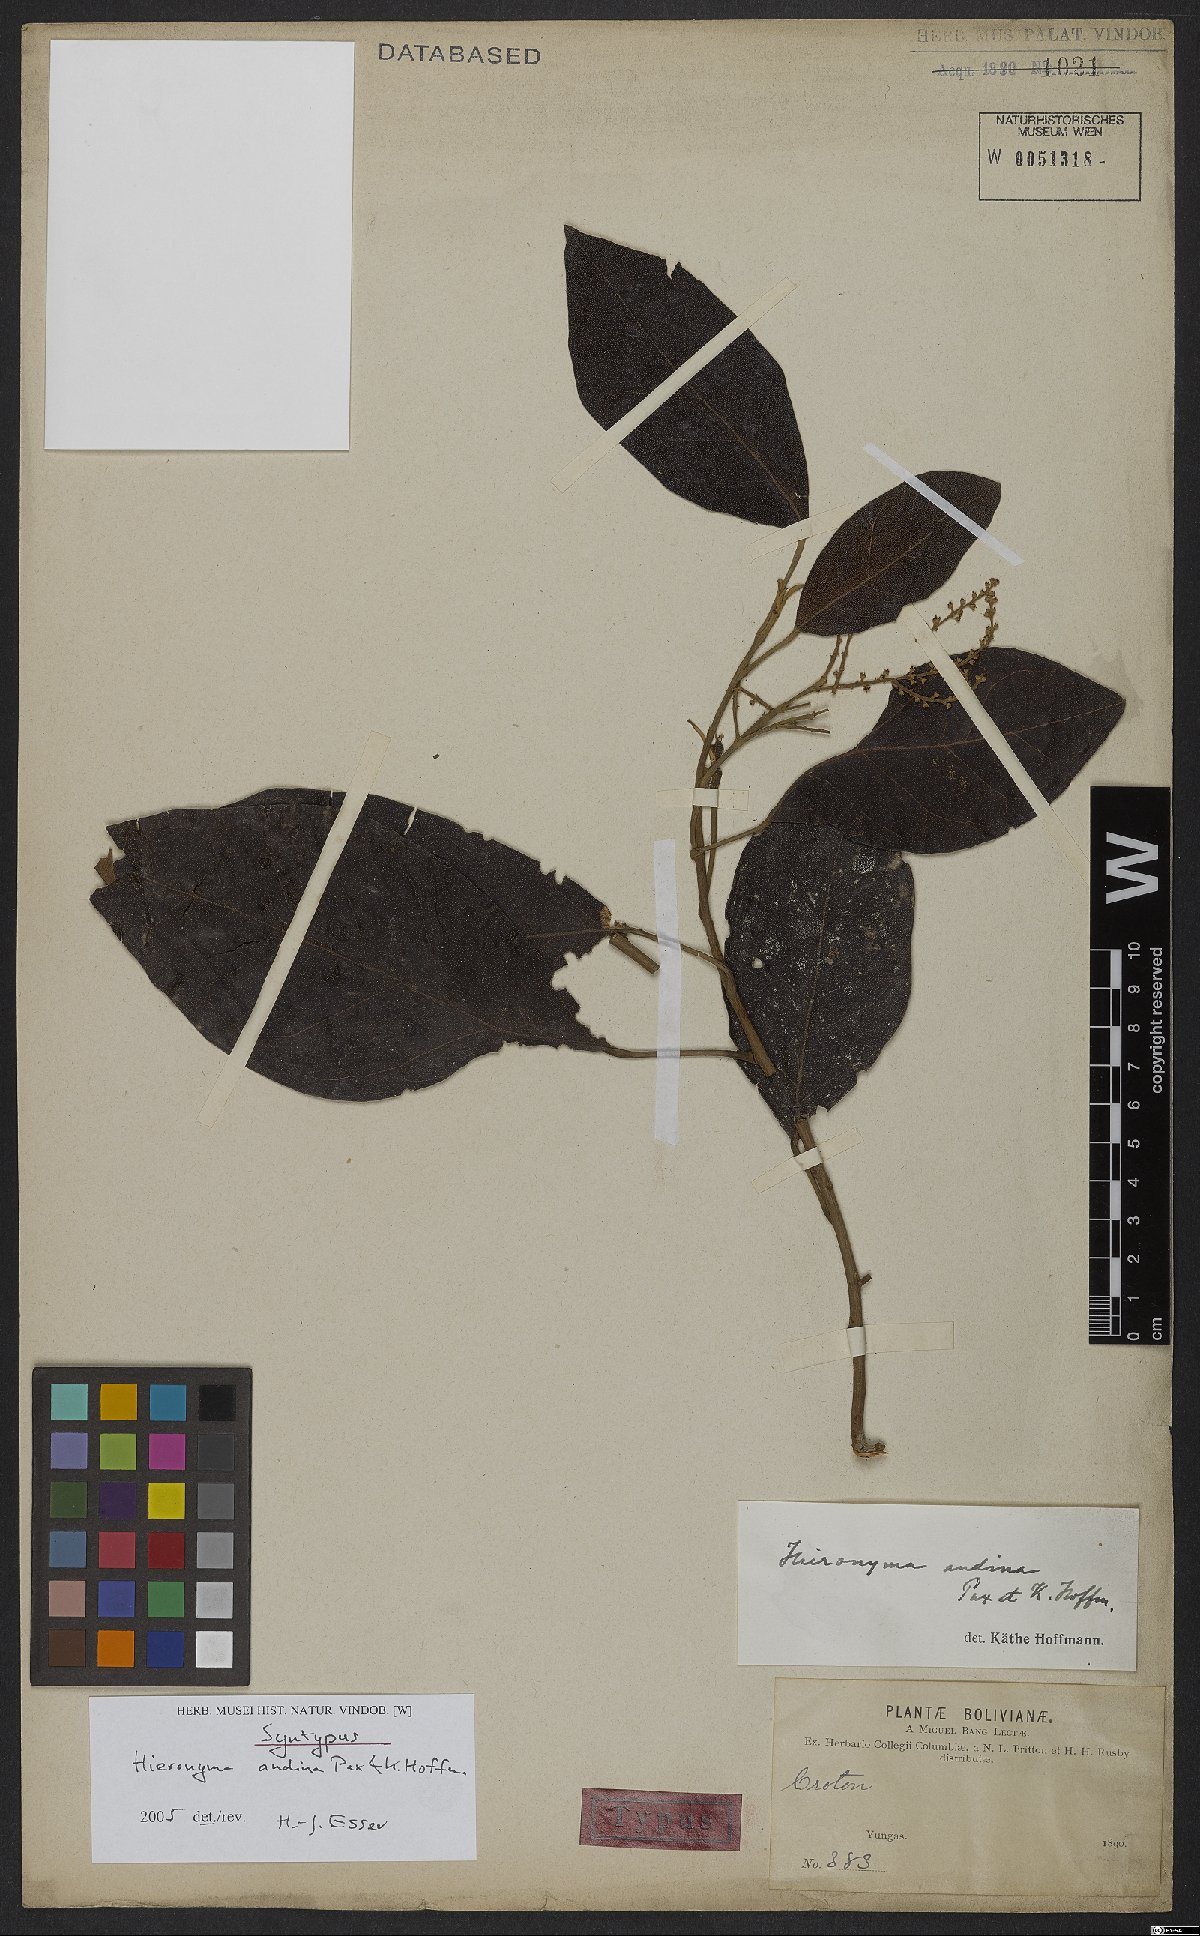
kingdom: Plantae
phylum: Tracheophyta
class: Magnoliopsida
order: Malpighiales
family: Phyllanthaceae
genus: Hieronyma
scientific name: Hieronyma oblonga
